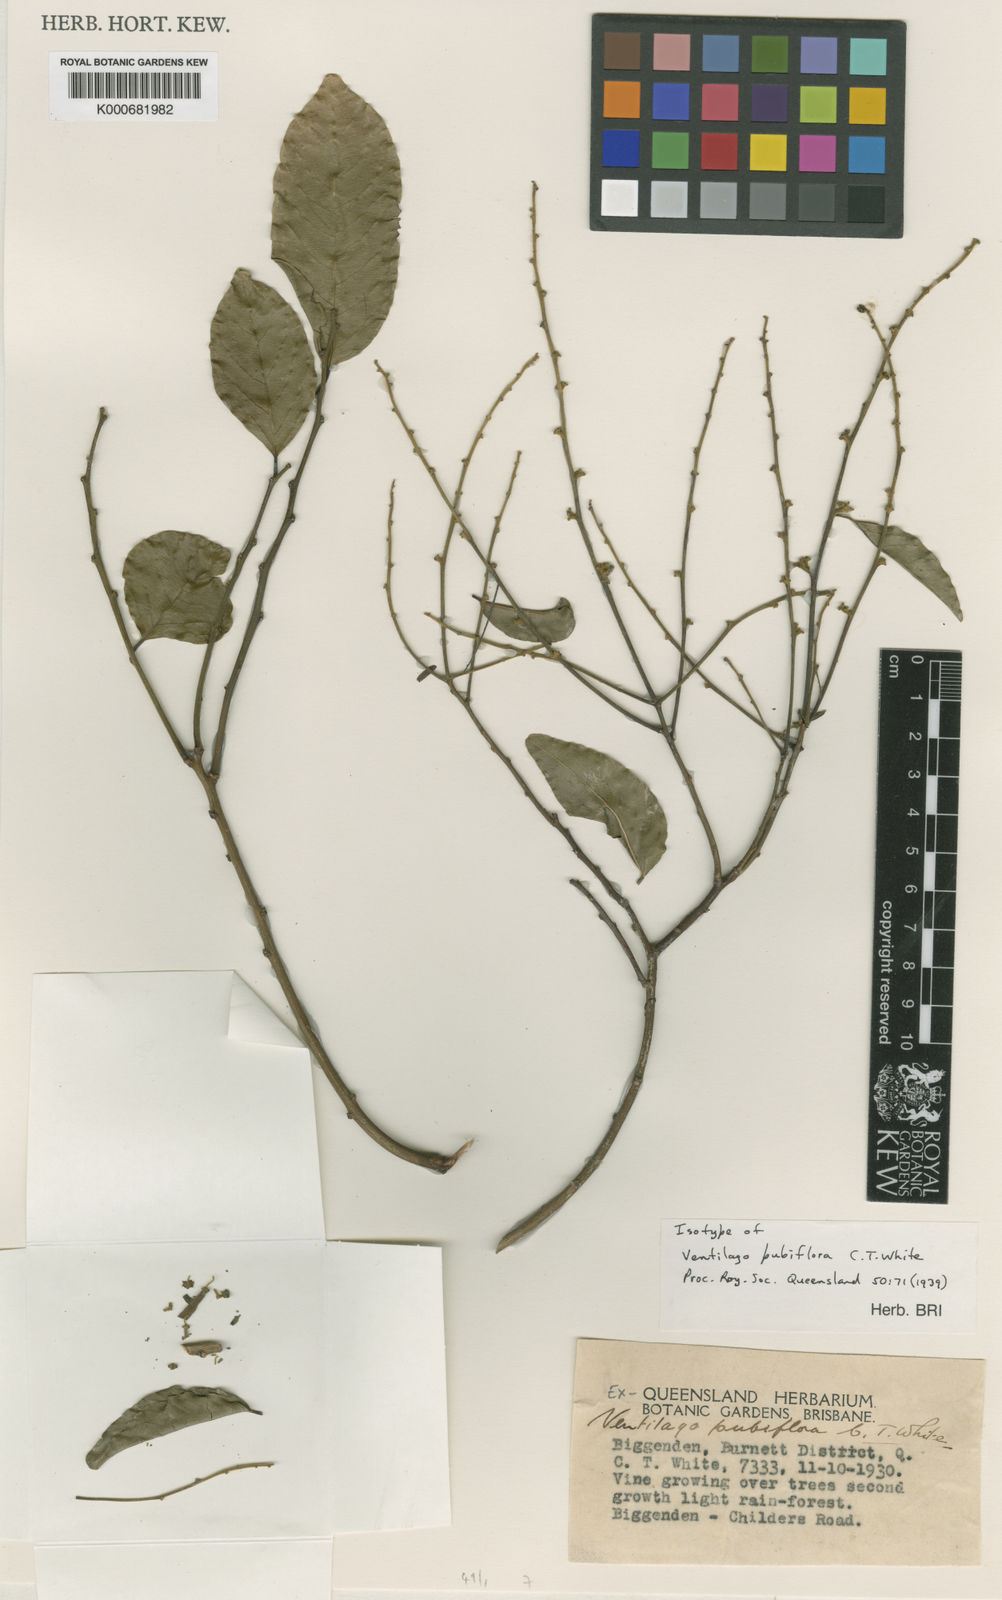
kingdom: Plantae
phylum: Tracheophyta
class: Magnoliopsida
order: Rosales
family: Rhamnaceae
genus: Ventilago
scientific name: Ventilago
